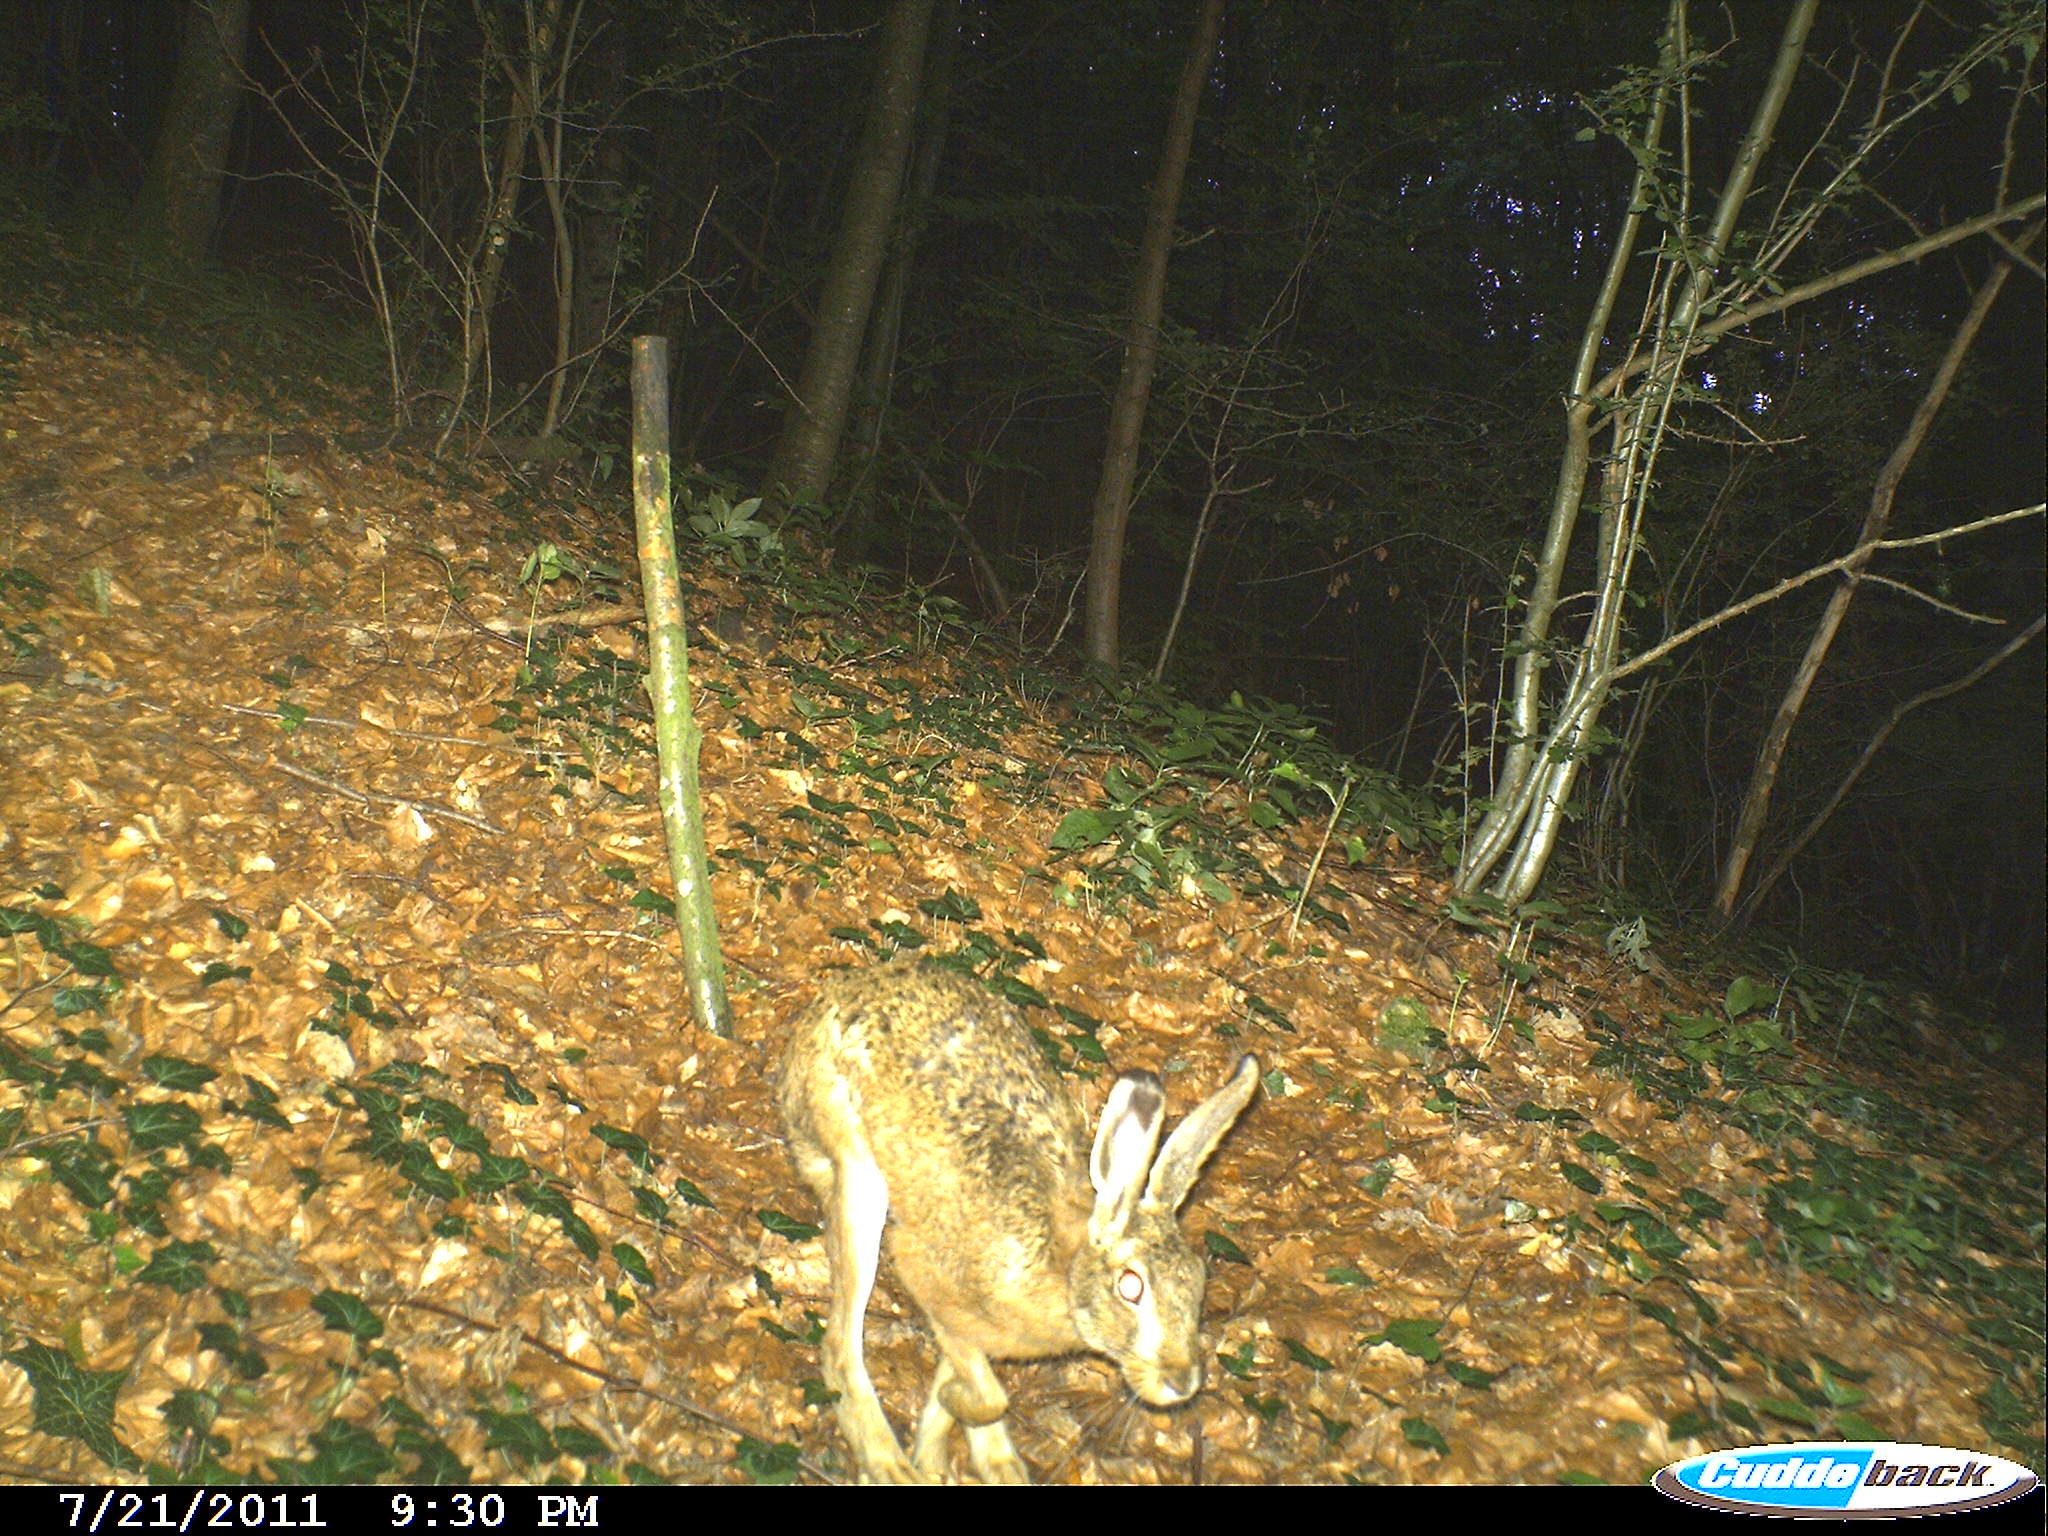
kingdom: Animalia
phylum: Chordata
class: Mammalia
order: Lagomorpha
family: Leporidae
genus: Lepus
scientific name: Lepus europaeus
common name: European hare
